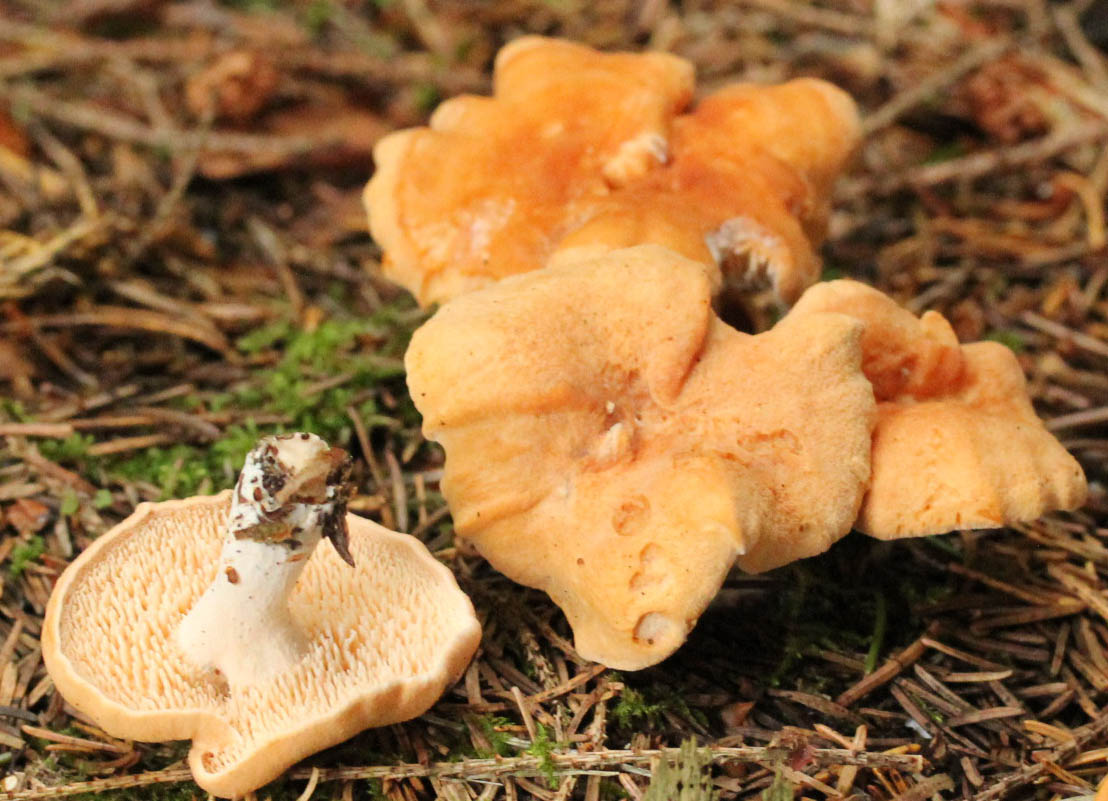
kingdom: Fungi
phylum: Basidiomycota
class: Agaricomycetes
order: Cantharellales
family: Hydnaceae
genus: Hydnum
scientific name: Hydnum rufescens
